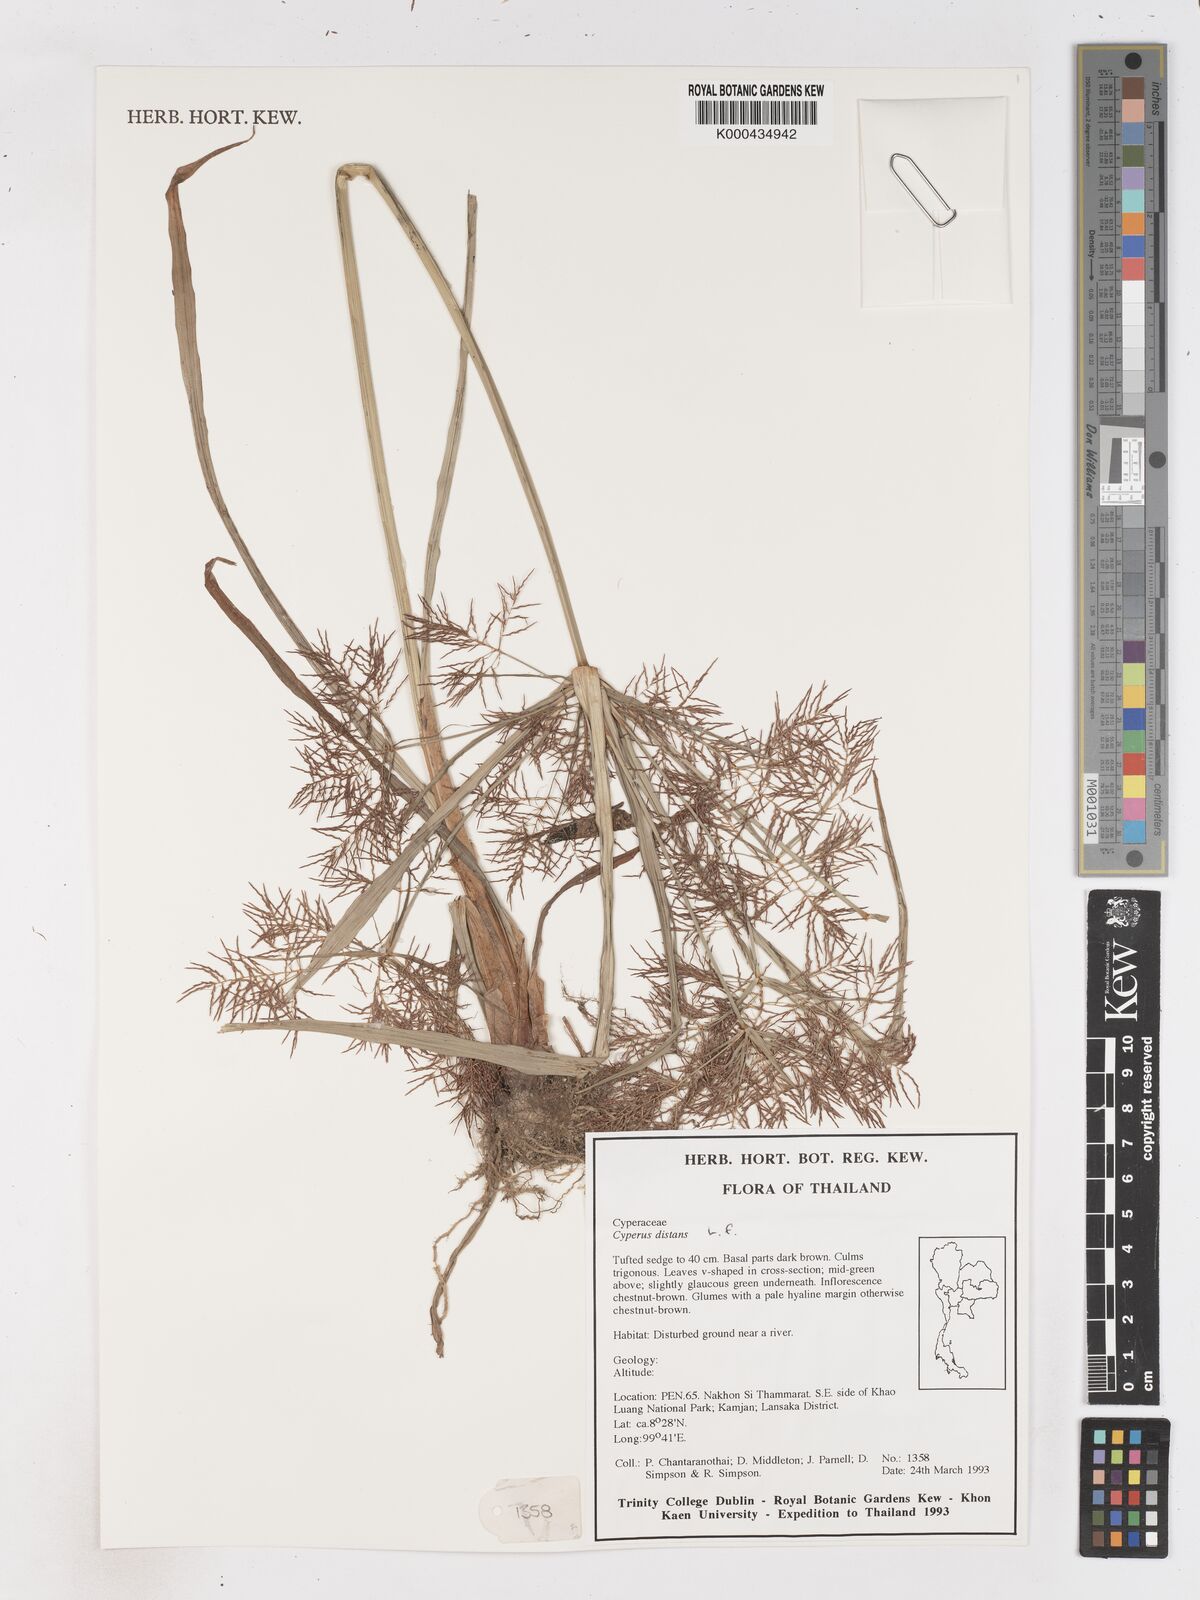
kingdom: Plantae
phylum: Tracheophyta
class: Liliopsida
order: Poales
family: Cyperaceae
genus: Cyperus
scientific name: Cyperus distans
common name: Slender cyperus
